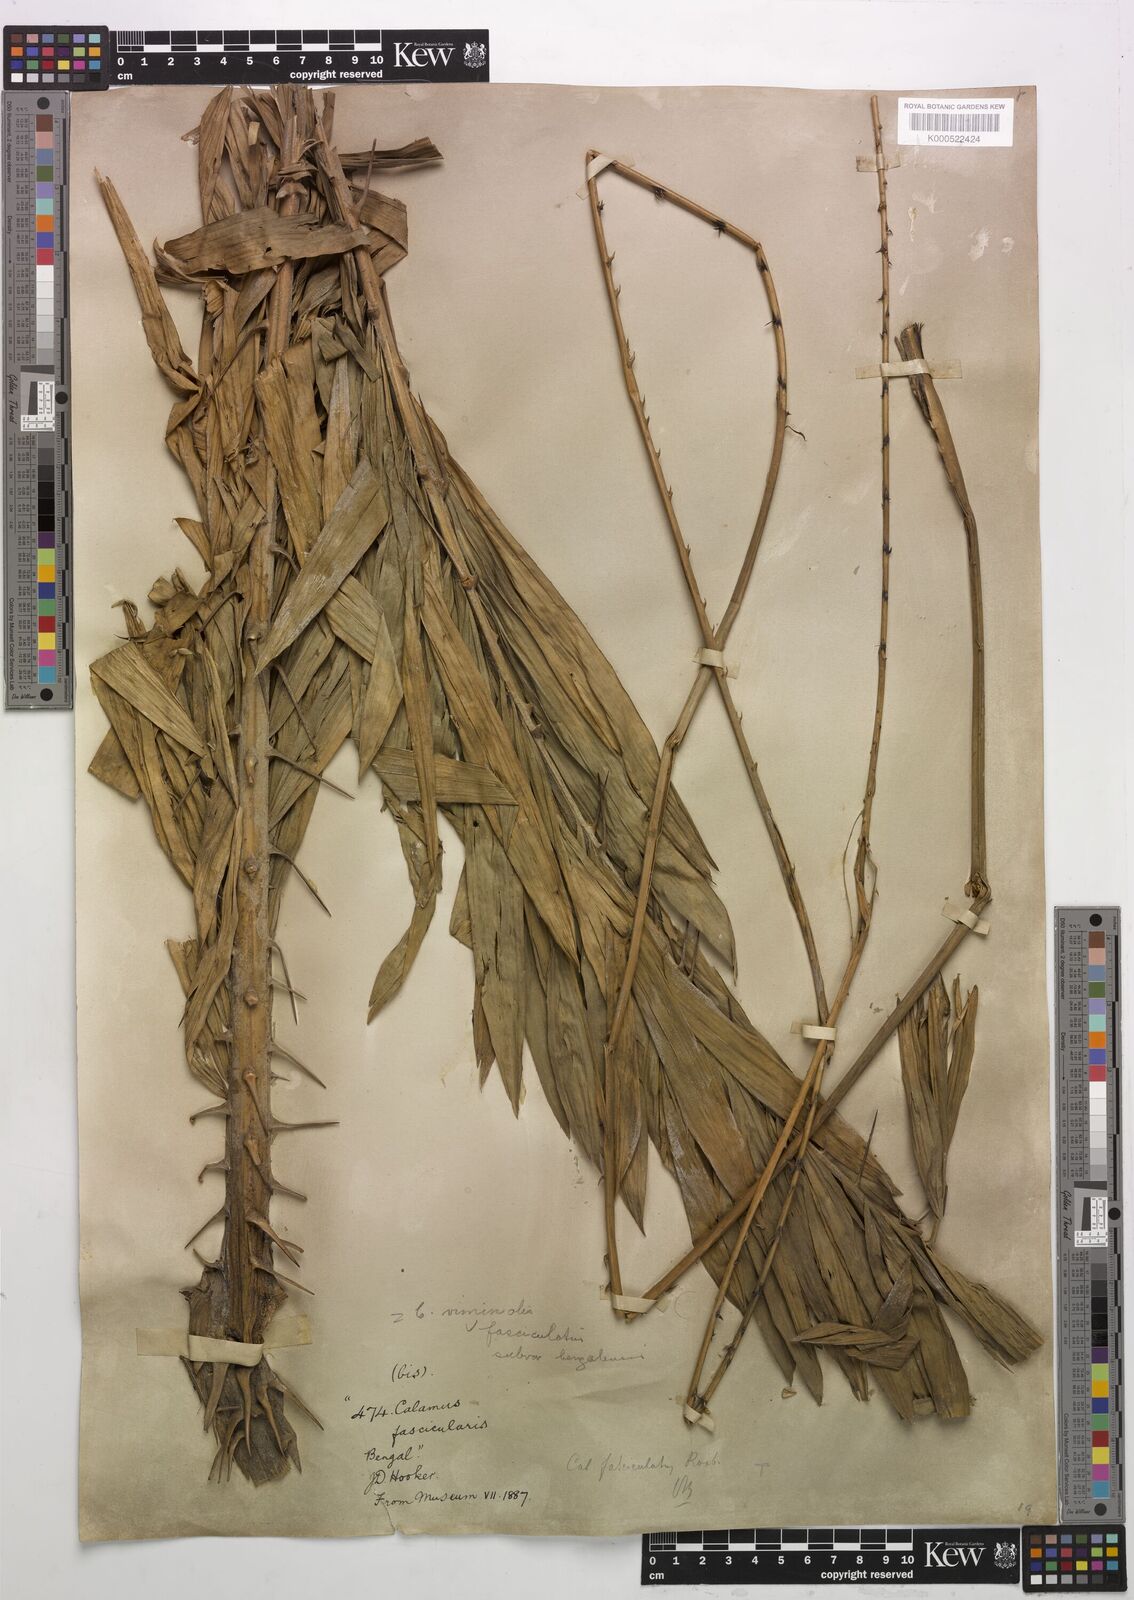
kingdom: Plantae
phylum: Tracheophyta
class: Liliopsida
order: Arecales
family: Arecaceae
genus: Calamus
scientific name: Calamus viminalis
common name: Osier-like rattan palm
